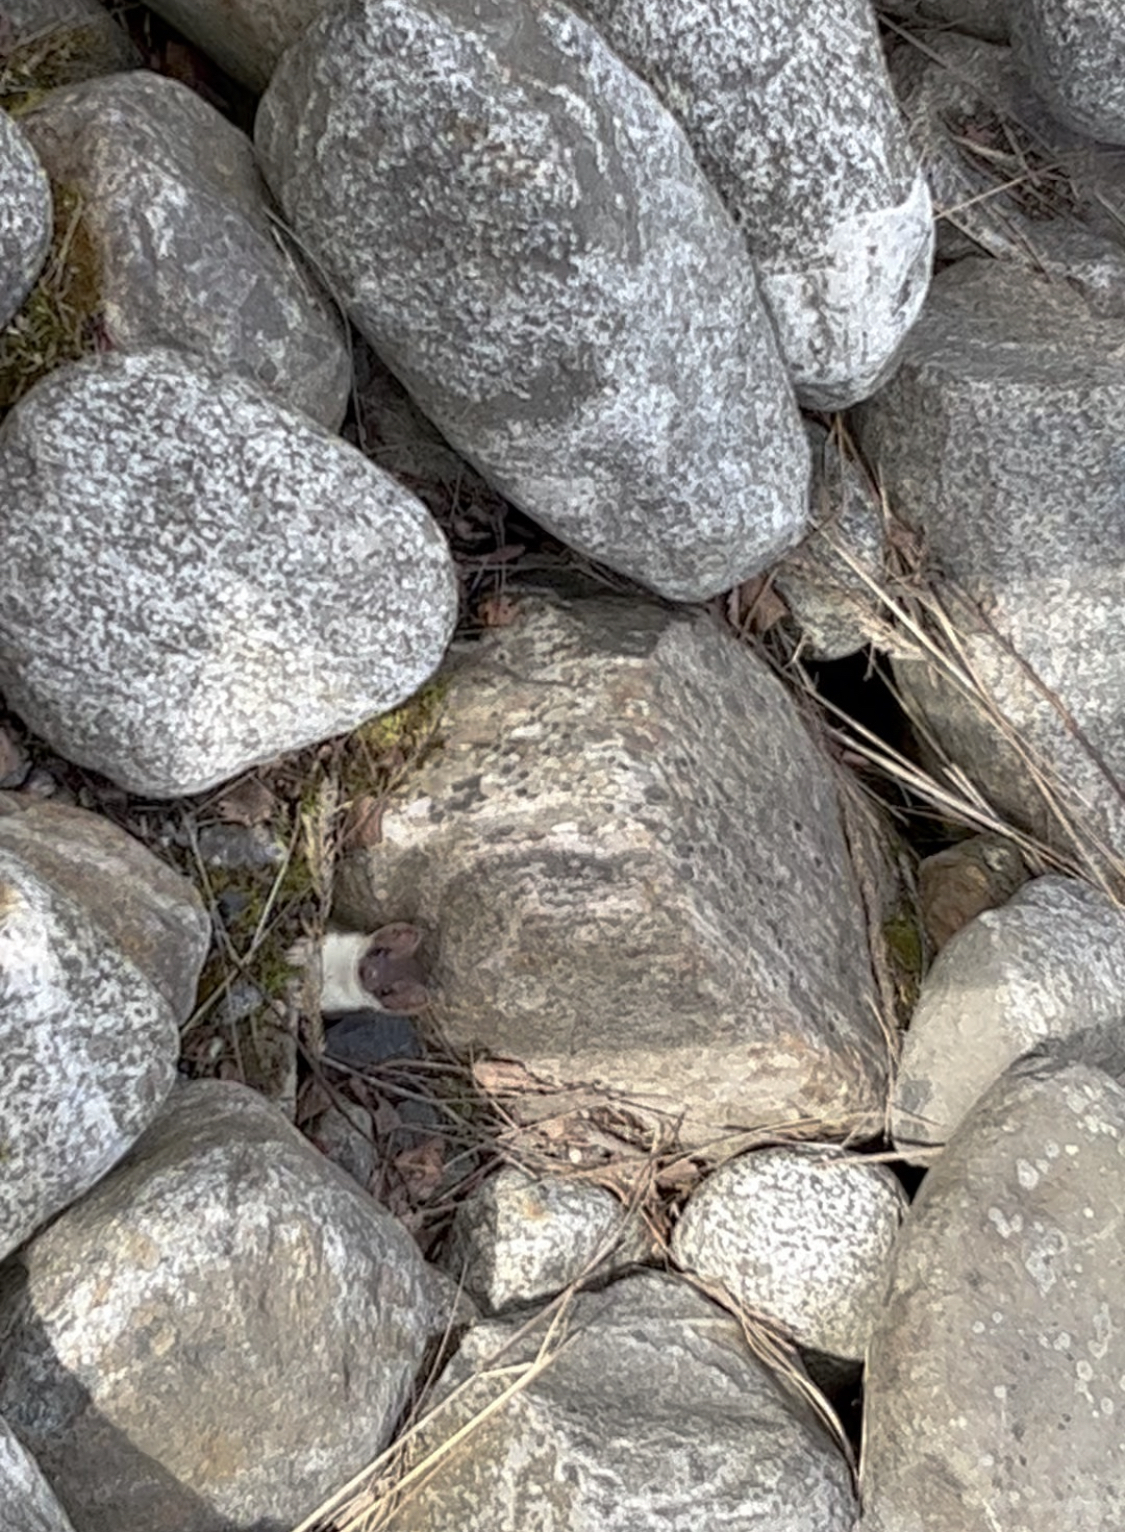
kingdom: Animalia
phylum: Chordata
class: Mammalia
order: Carnivora
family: Mustelidae
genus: Mustela
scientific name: Mustela erminea
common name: Stoat
